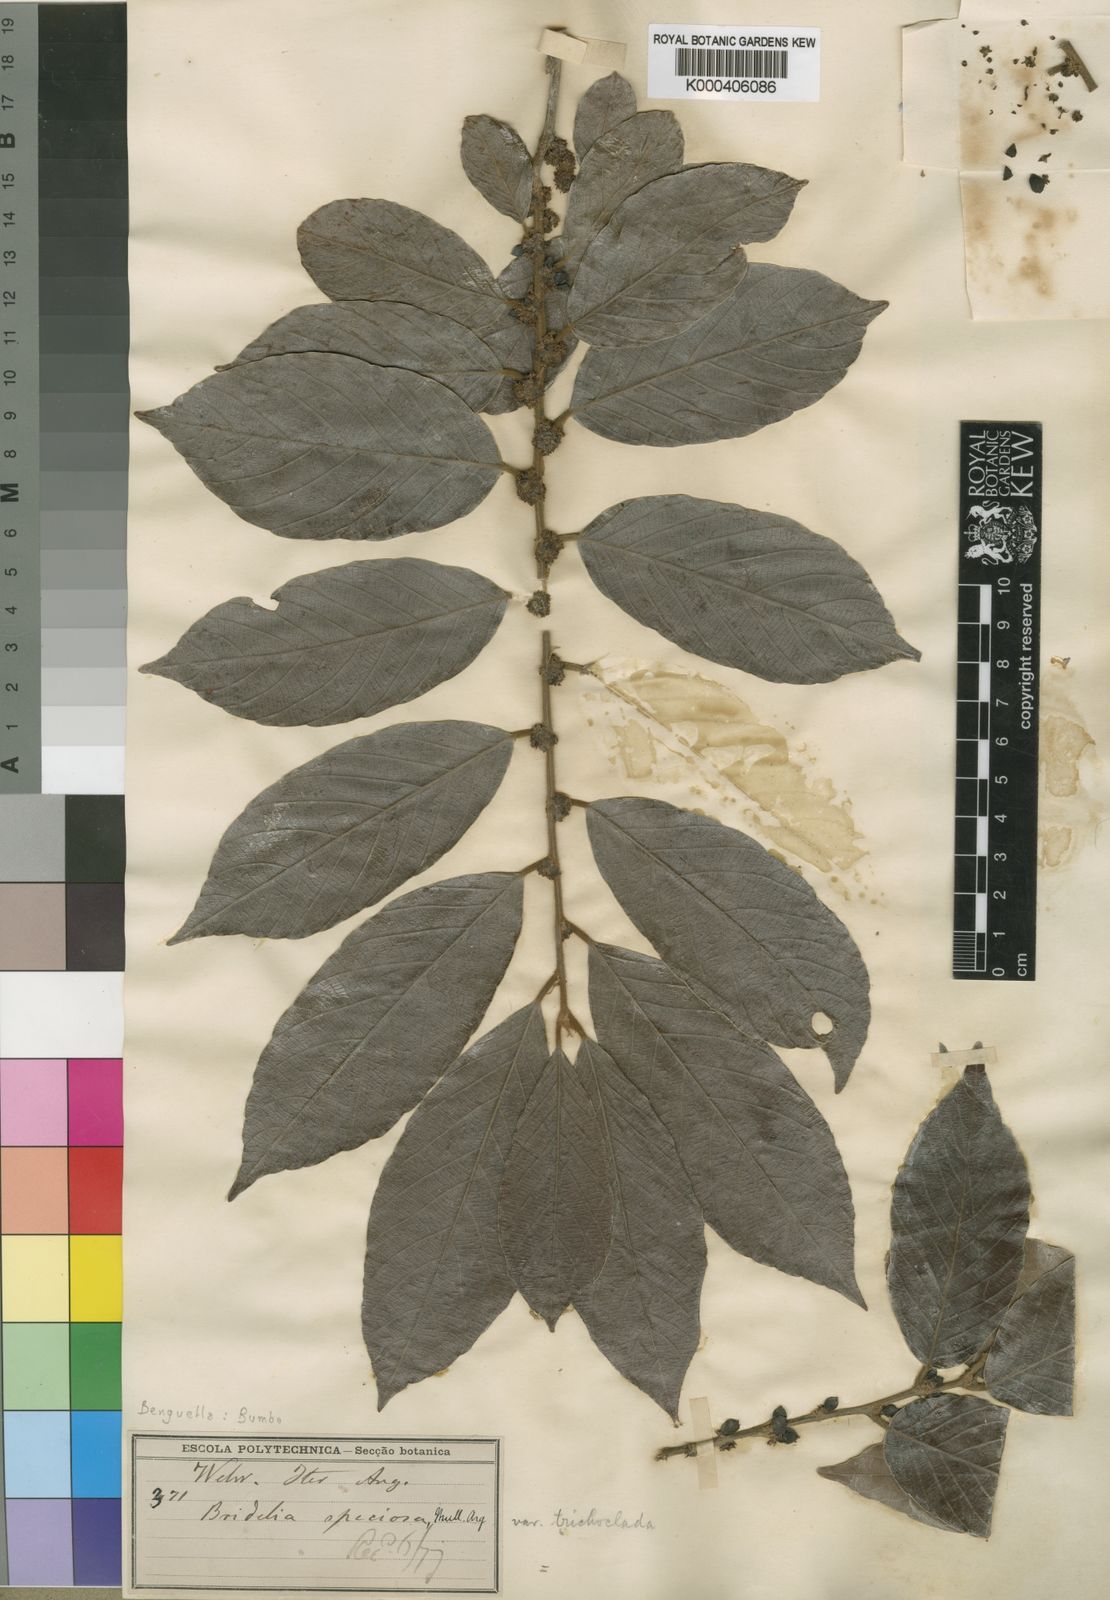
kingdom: Plantae
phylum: Tracheophyta
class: Magnoliopsida
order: Malpighiales
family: Phyllanthaceae
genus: Bridelia
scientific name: Bridelia micrantha
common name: Bridelia
